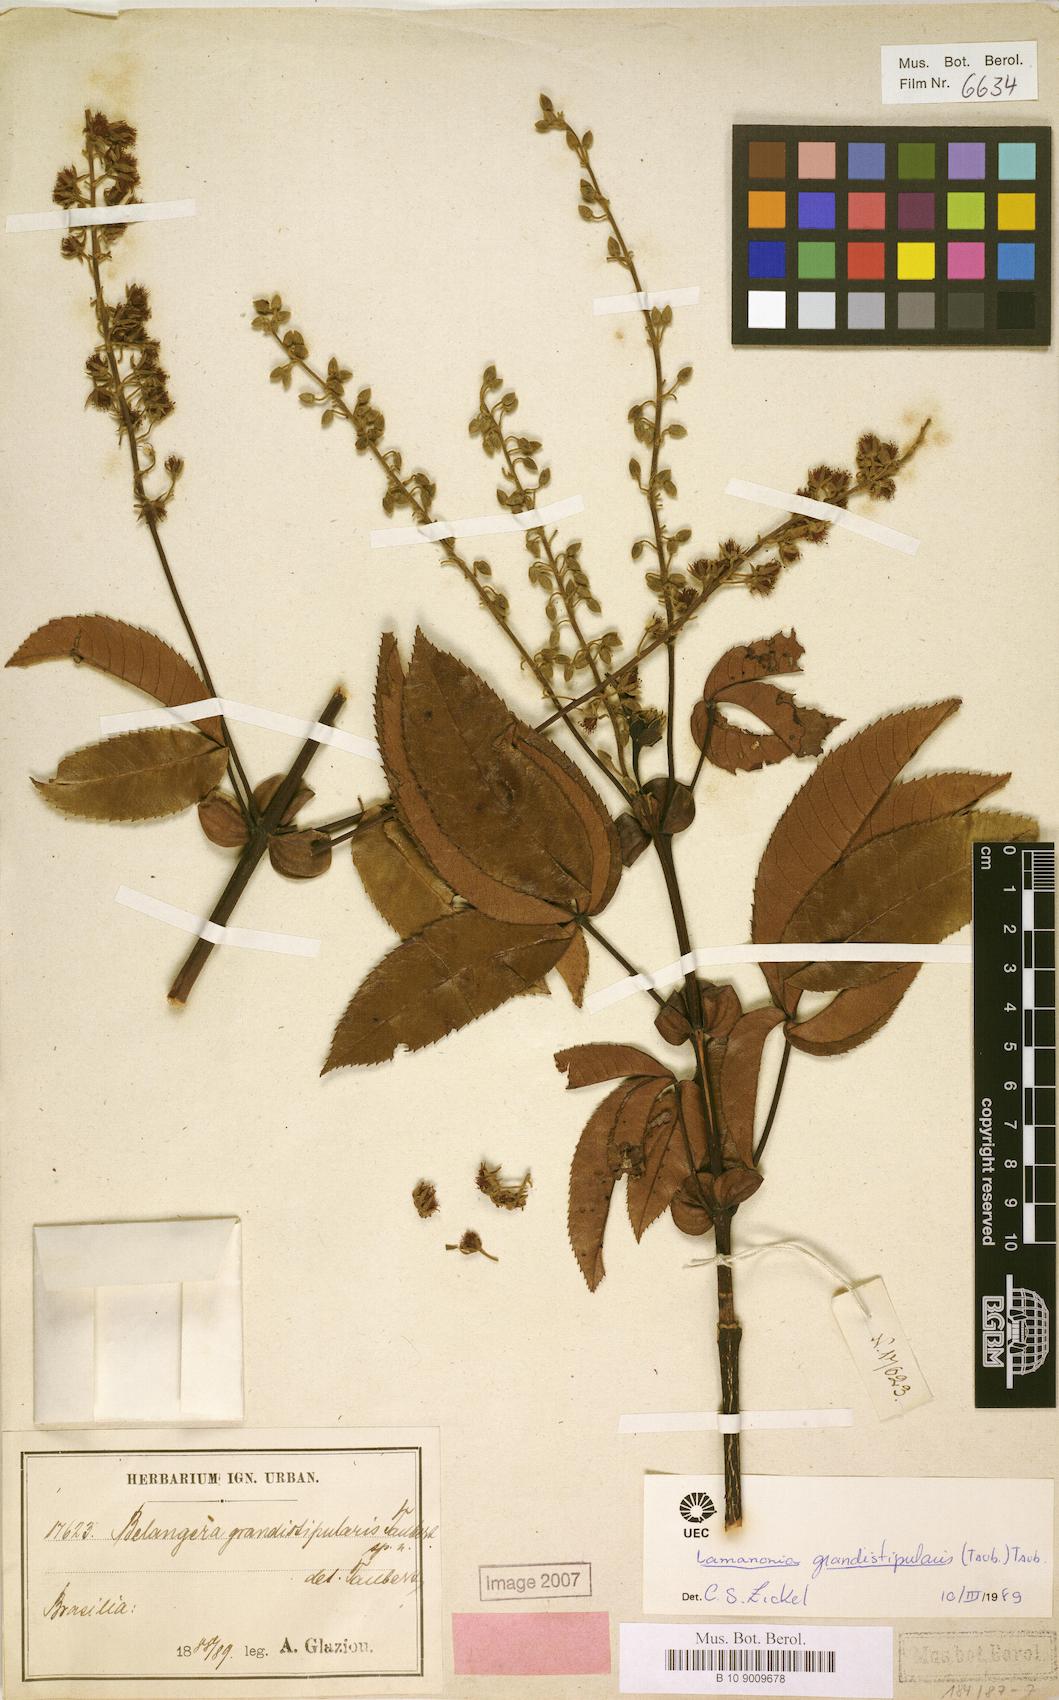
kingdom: Plantae
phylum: Tracheophyta
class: Magnoliopsida
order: Oxalidales
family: Cunoniaceae
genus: Lamanonia
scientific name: Lamanonia speciosa
